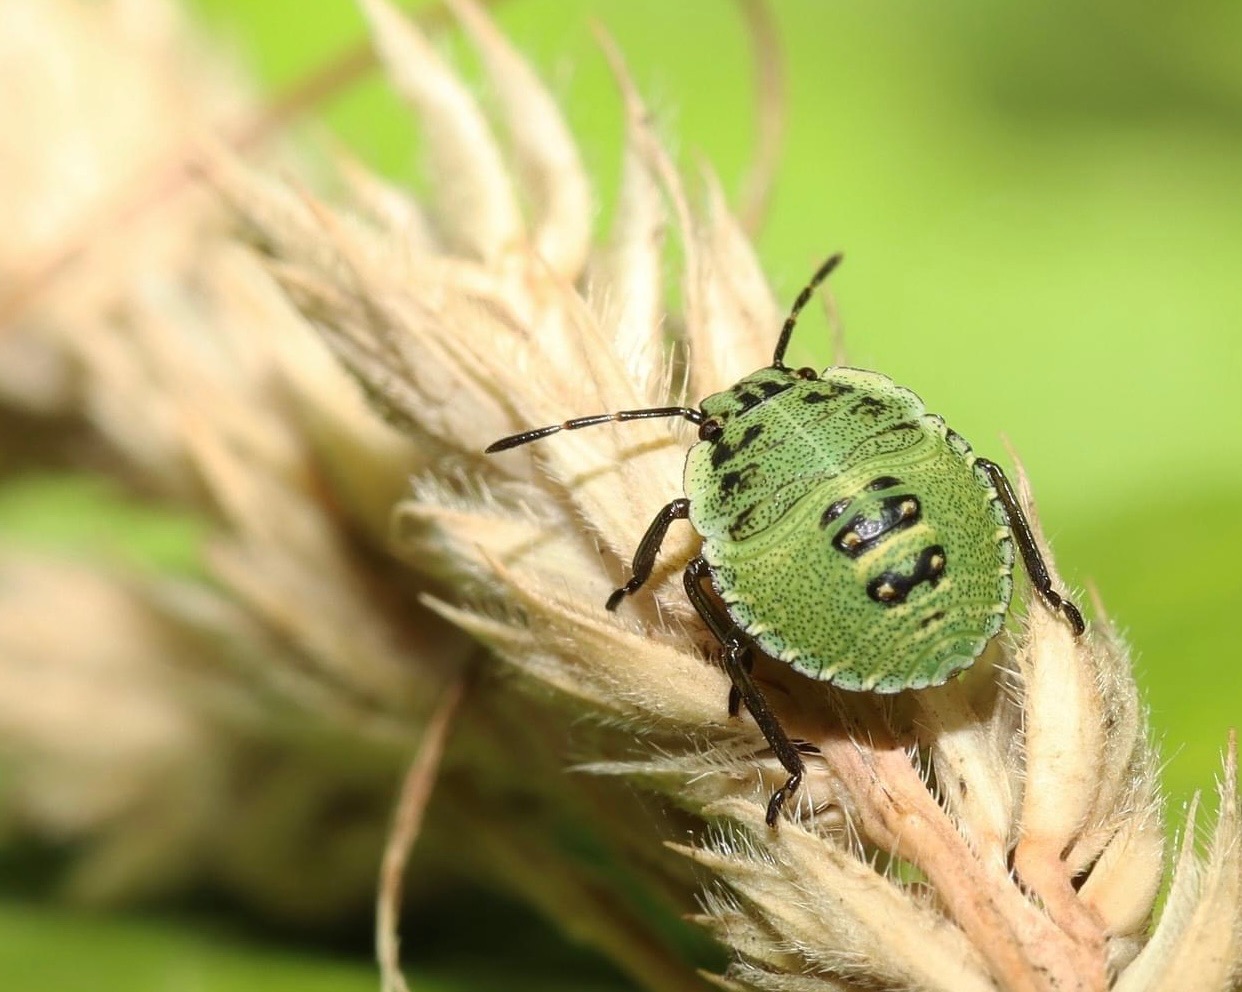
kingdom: Animalia
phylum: Arthropoda
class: Insecta
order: Hemiptera
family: Pentatomidae
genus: Palomena
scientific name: Palomena prasina
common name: Grøn bredtæge
